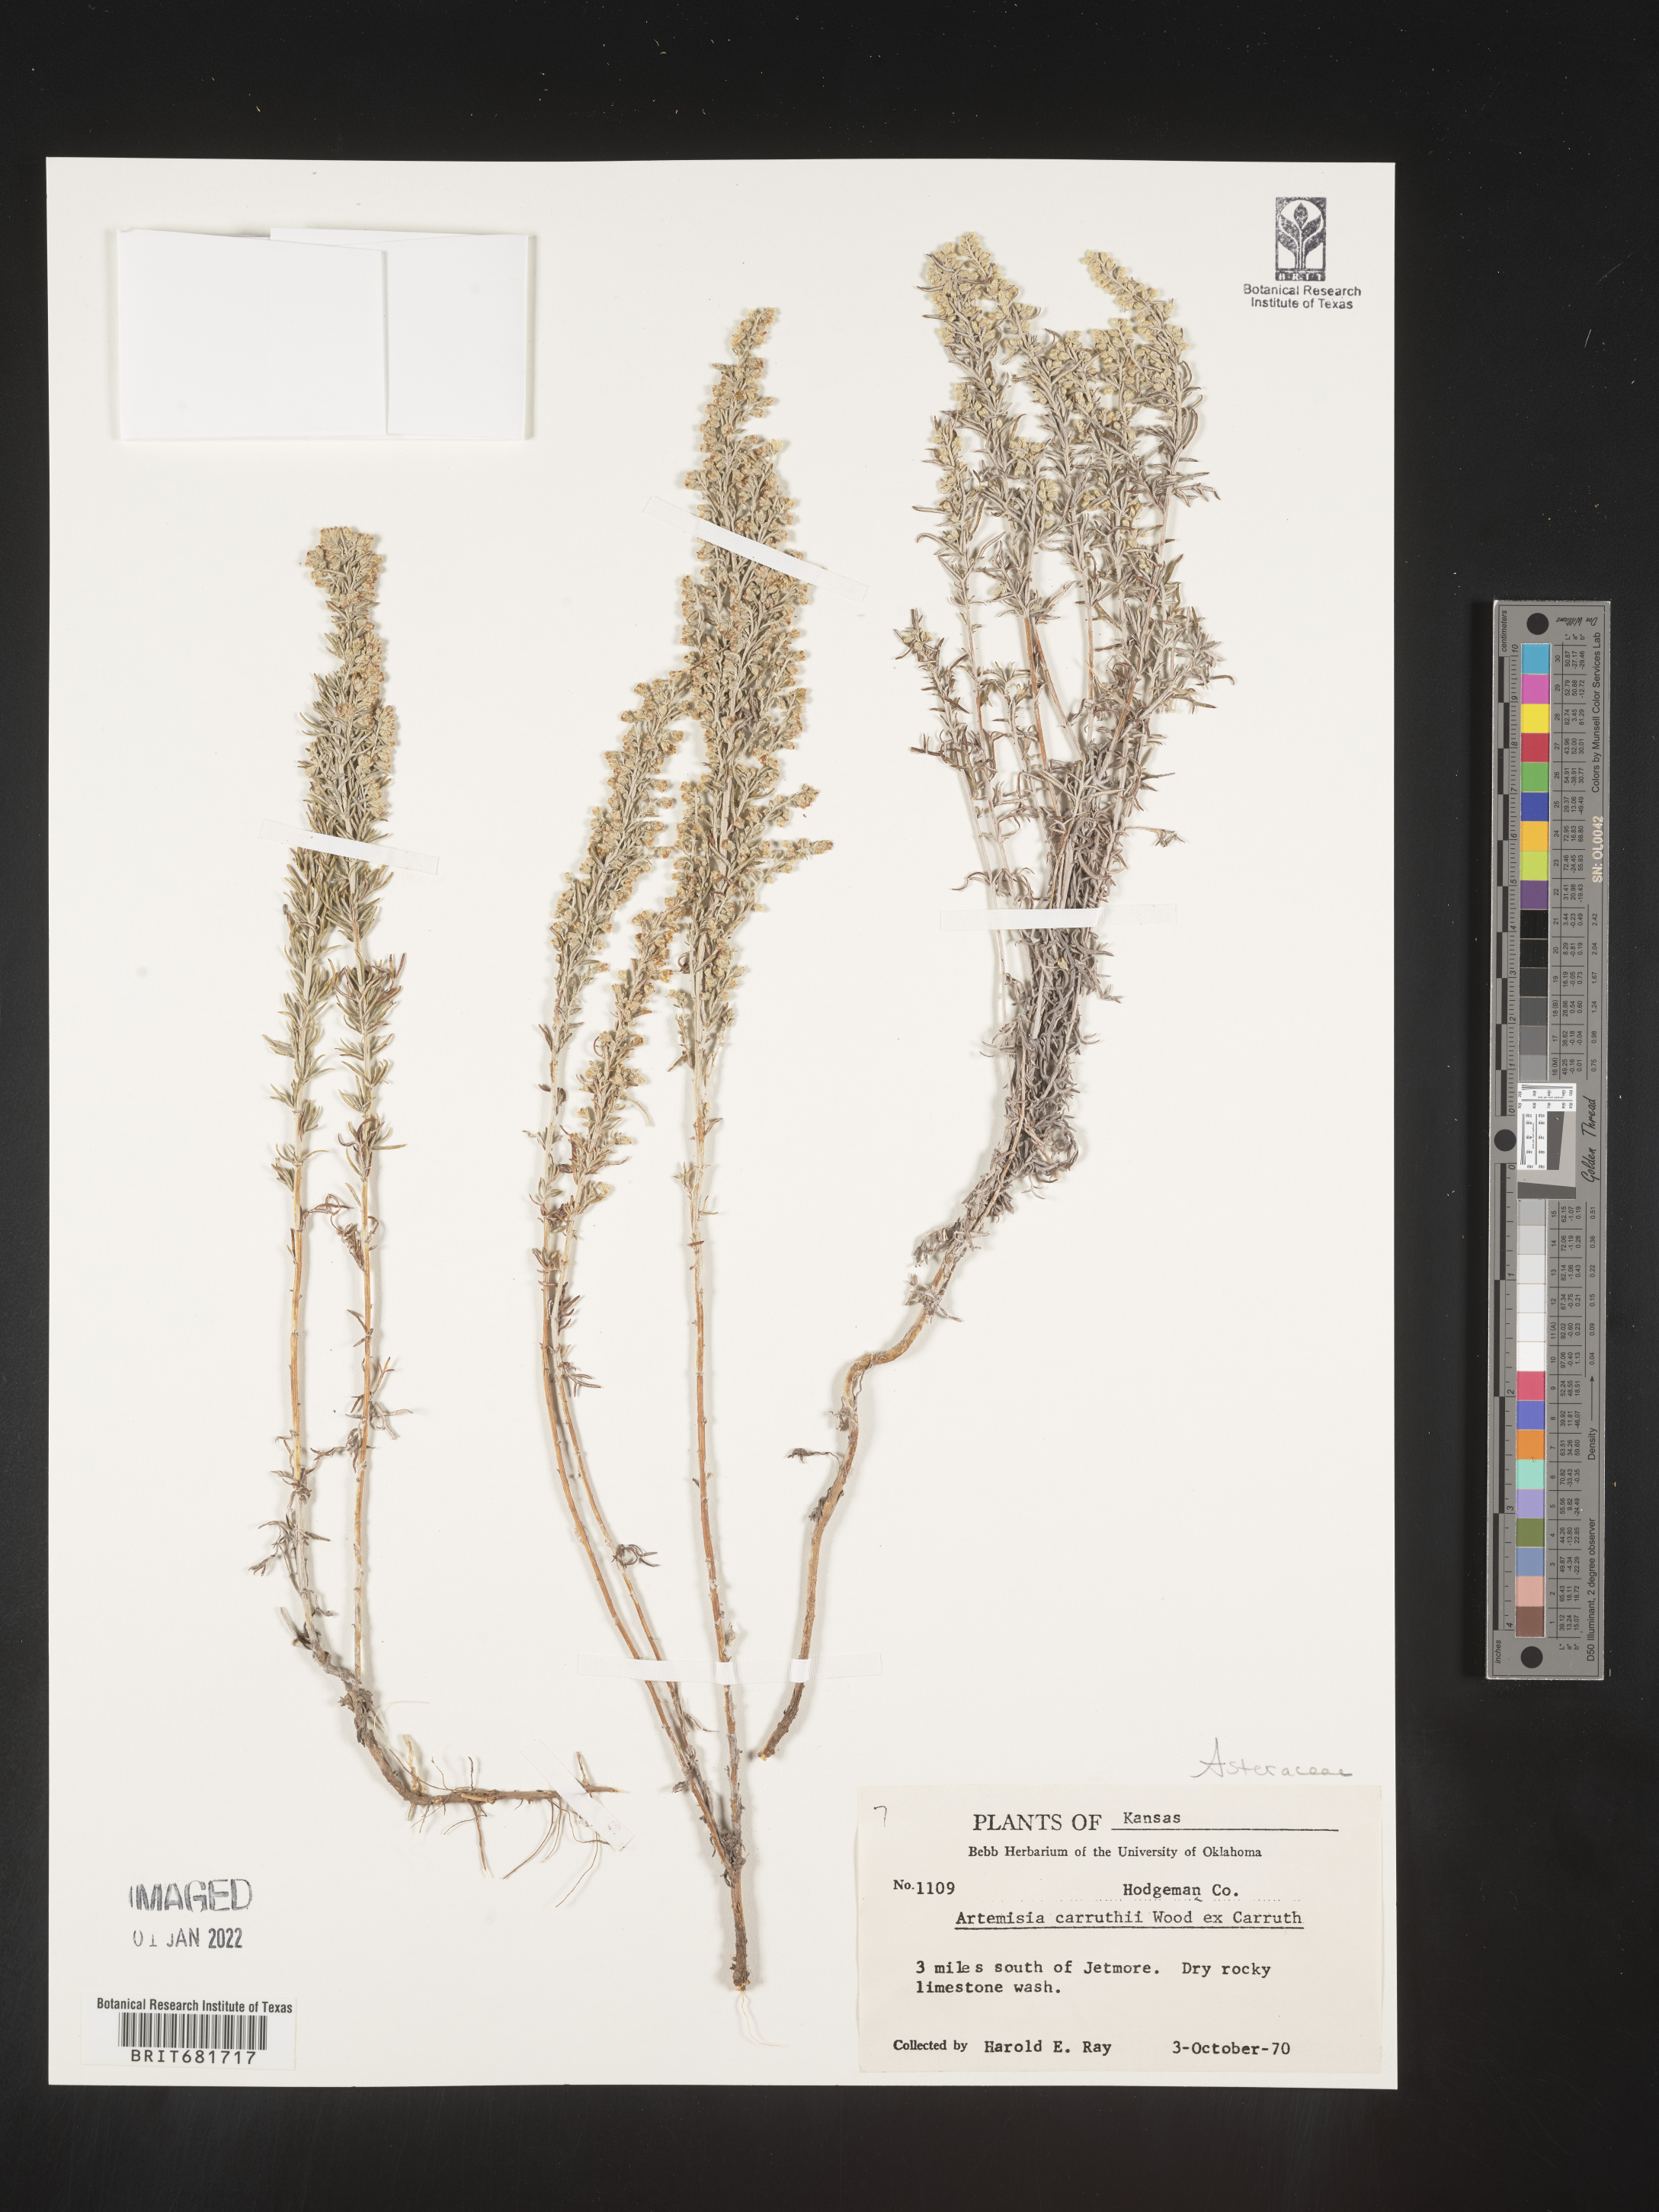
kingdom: Plantae
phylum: Tracheophyta
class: Magnoliopsida
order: Asterales
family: Asteraceae
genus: Artemisia
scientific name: Artemisia carruthii
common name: Carruth wormwood
